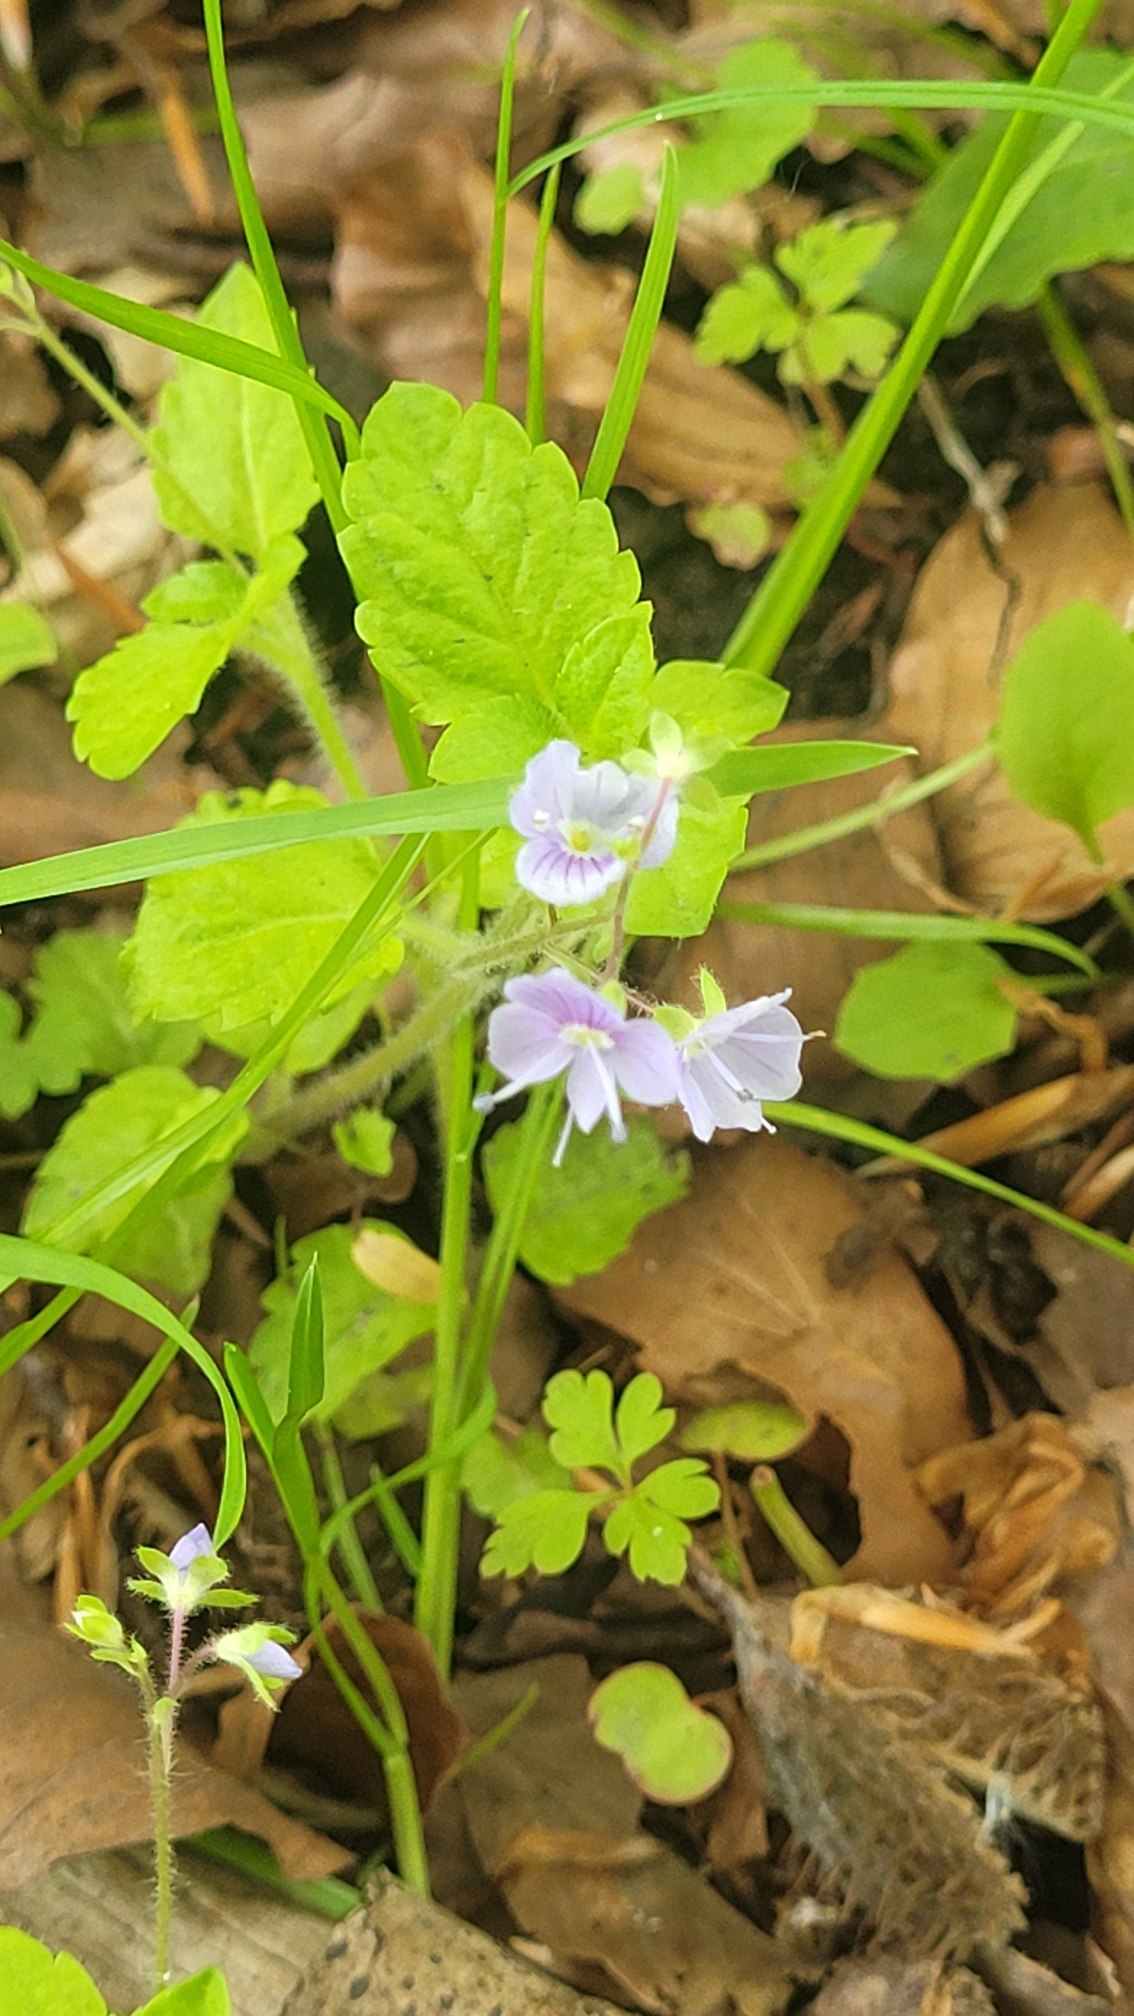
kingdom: Plantae
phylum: Tracheophyta
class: Magnoliopsida
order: Lamiales
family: Plantaginaceae
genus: Veronica
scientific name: Veronica montana
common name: Bjerg-ærenpris
